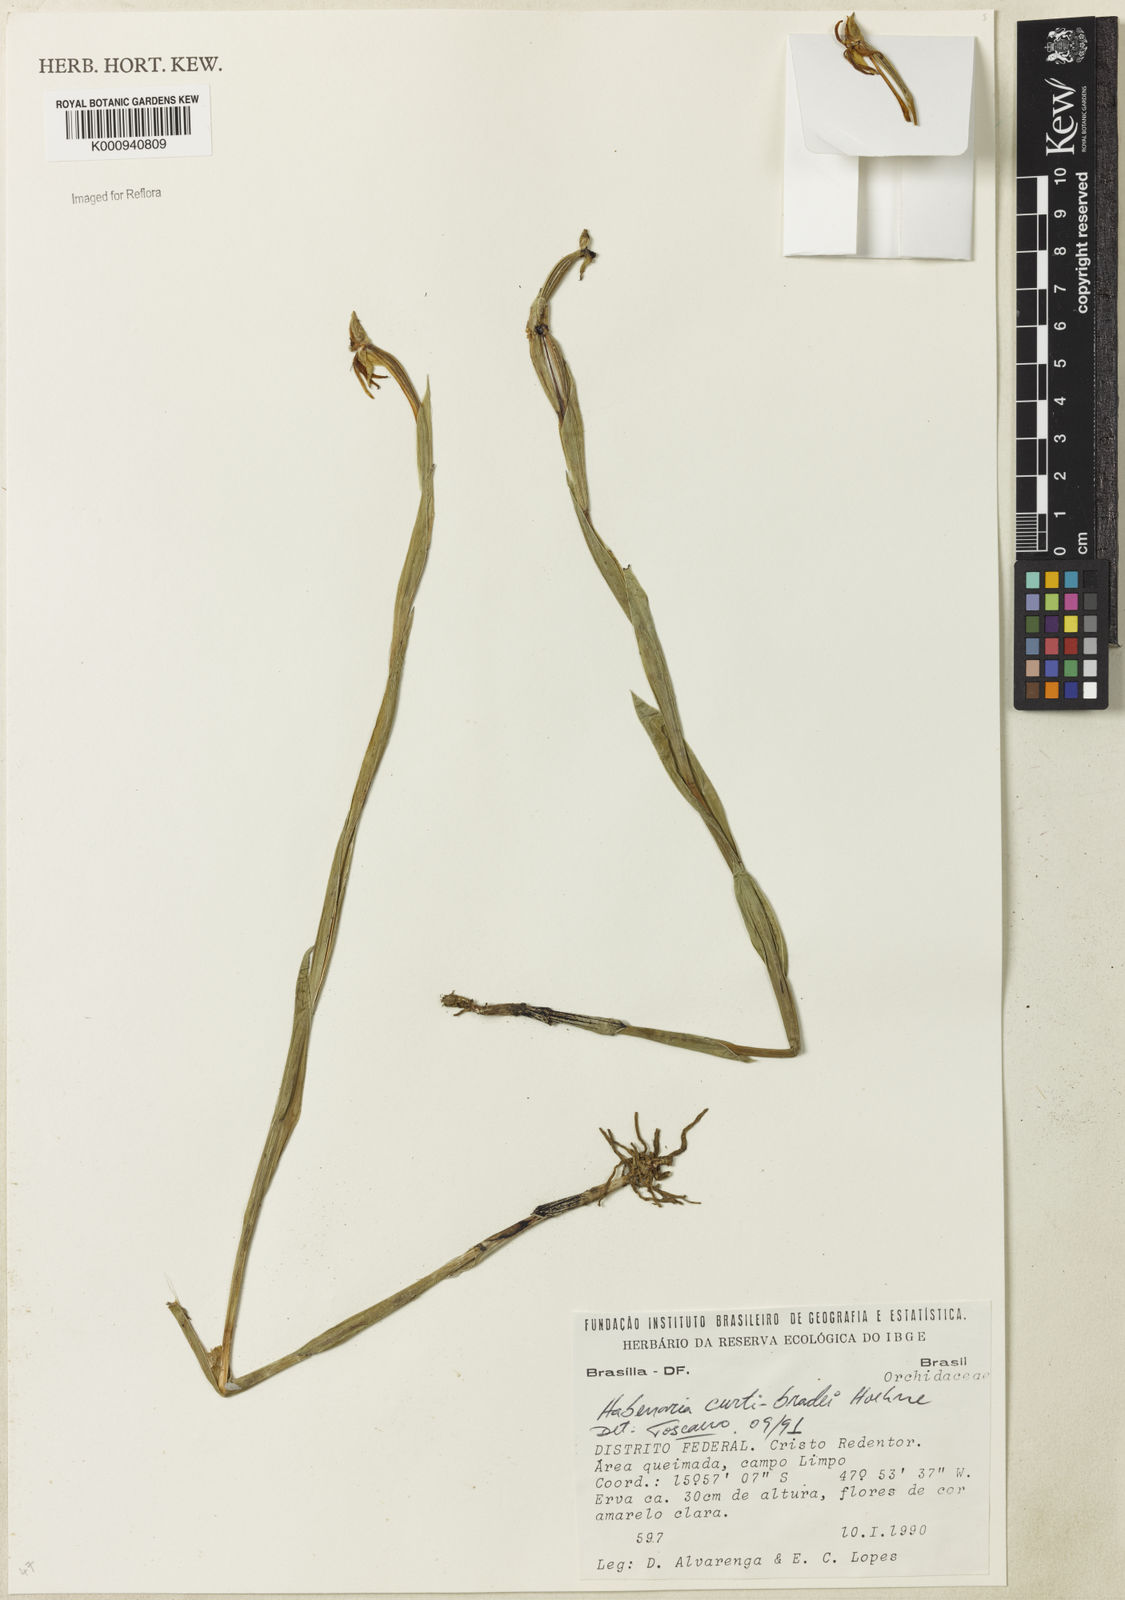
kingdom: Plantae
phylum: Tracheophyta
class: Liliopsida
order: Asparagales
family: Orchidaceae
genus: Habenaria
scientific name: Habenaria trifida
